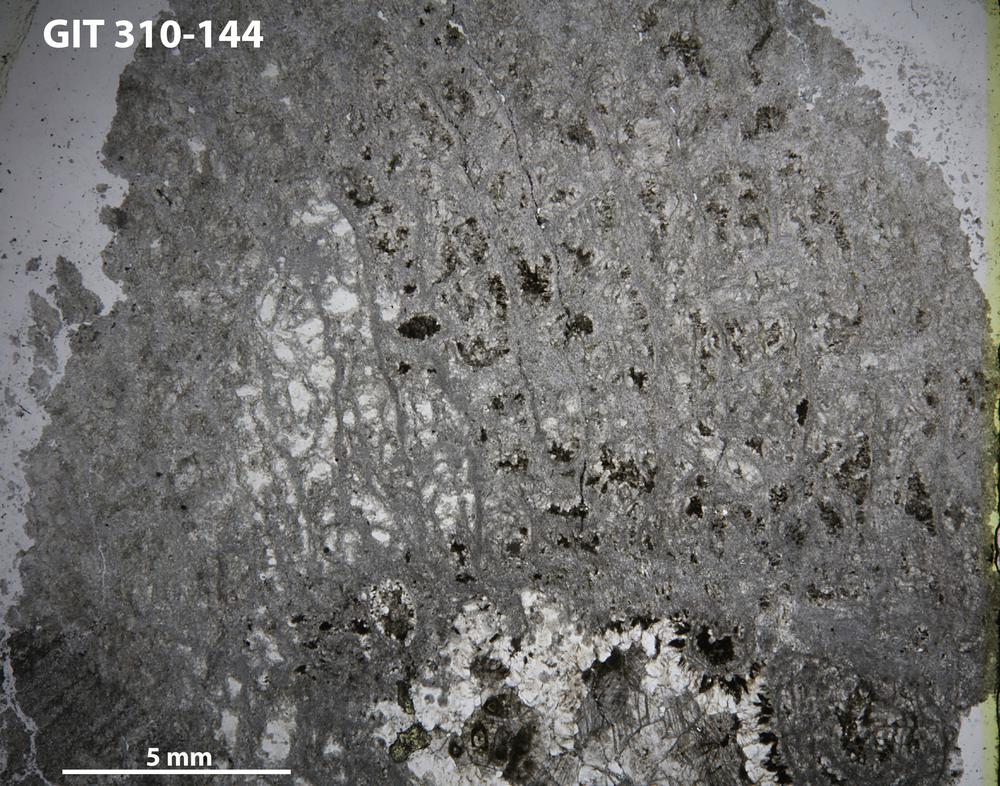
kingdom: Animalia
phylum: Porifera
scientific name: Porifera
